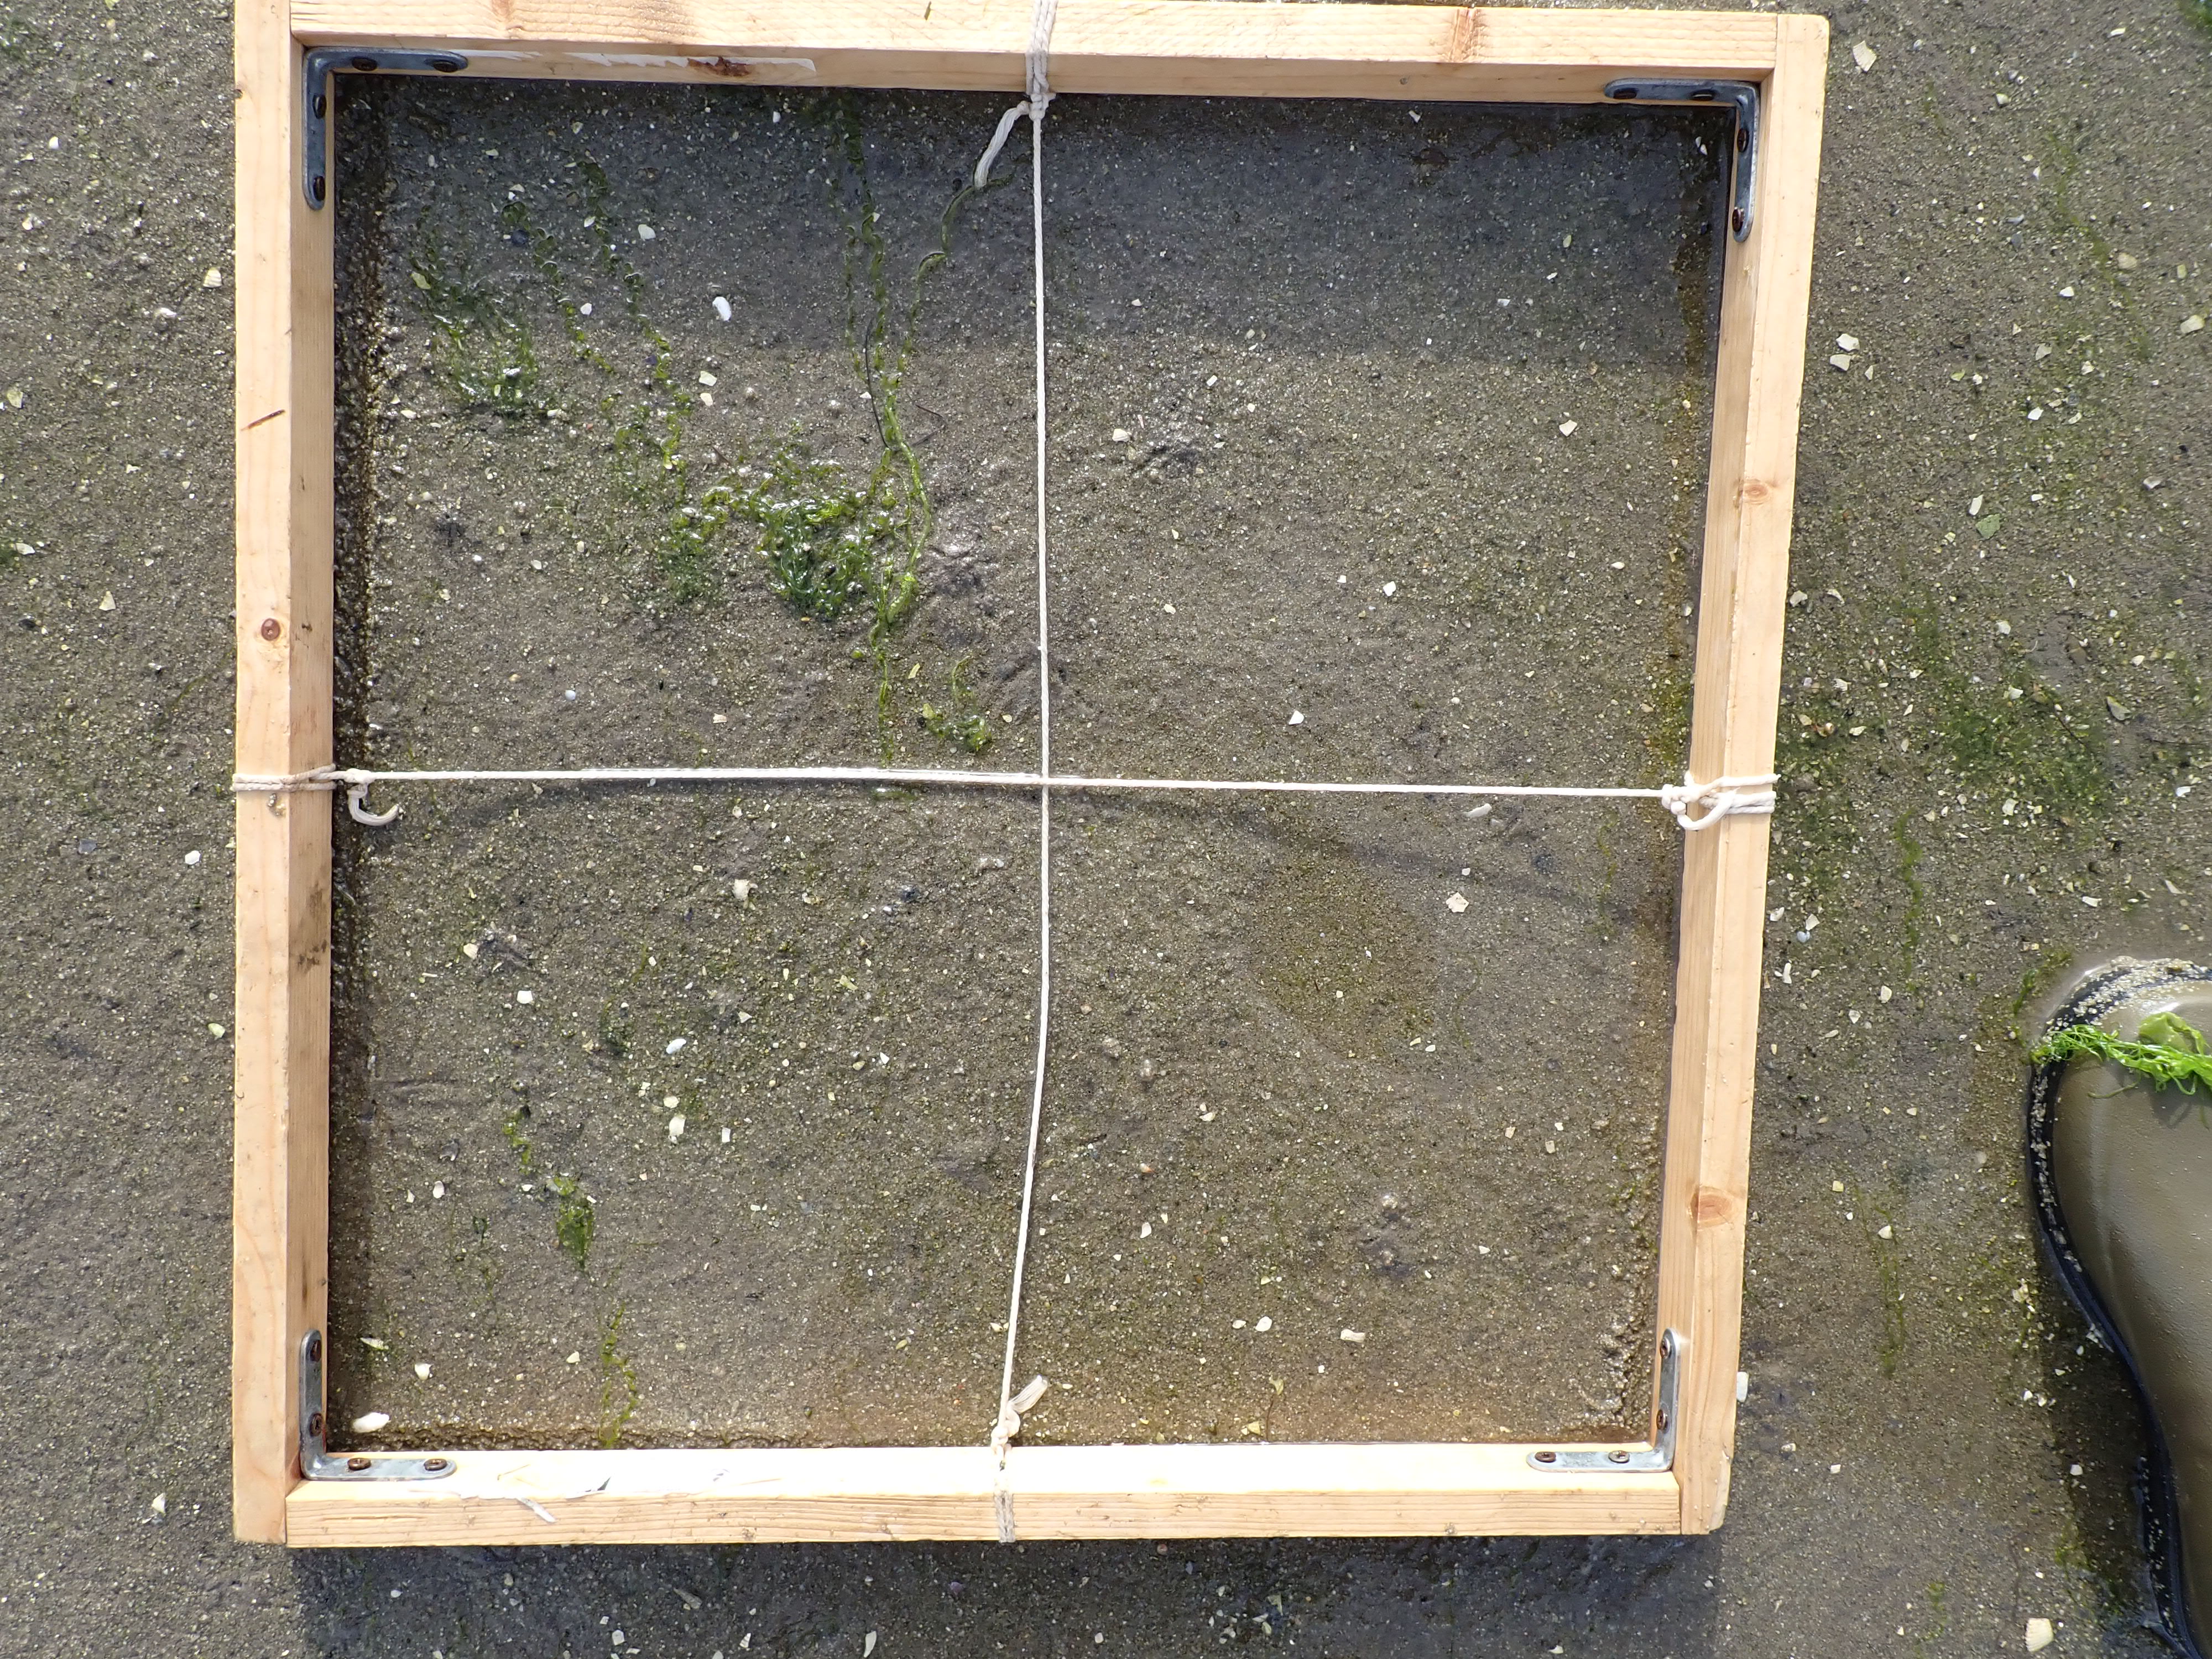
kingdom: Plantae
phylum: Chlorophyta
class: Ulvophyceae
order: Ulvales
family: Ulvaceae
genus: Ulva
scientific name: Ulva
